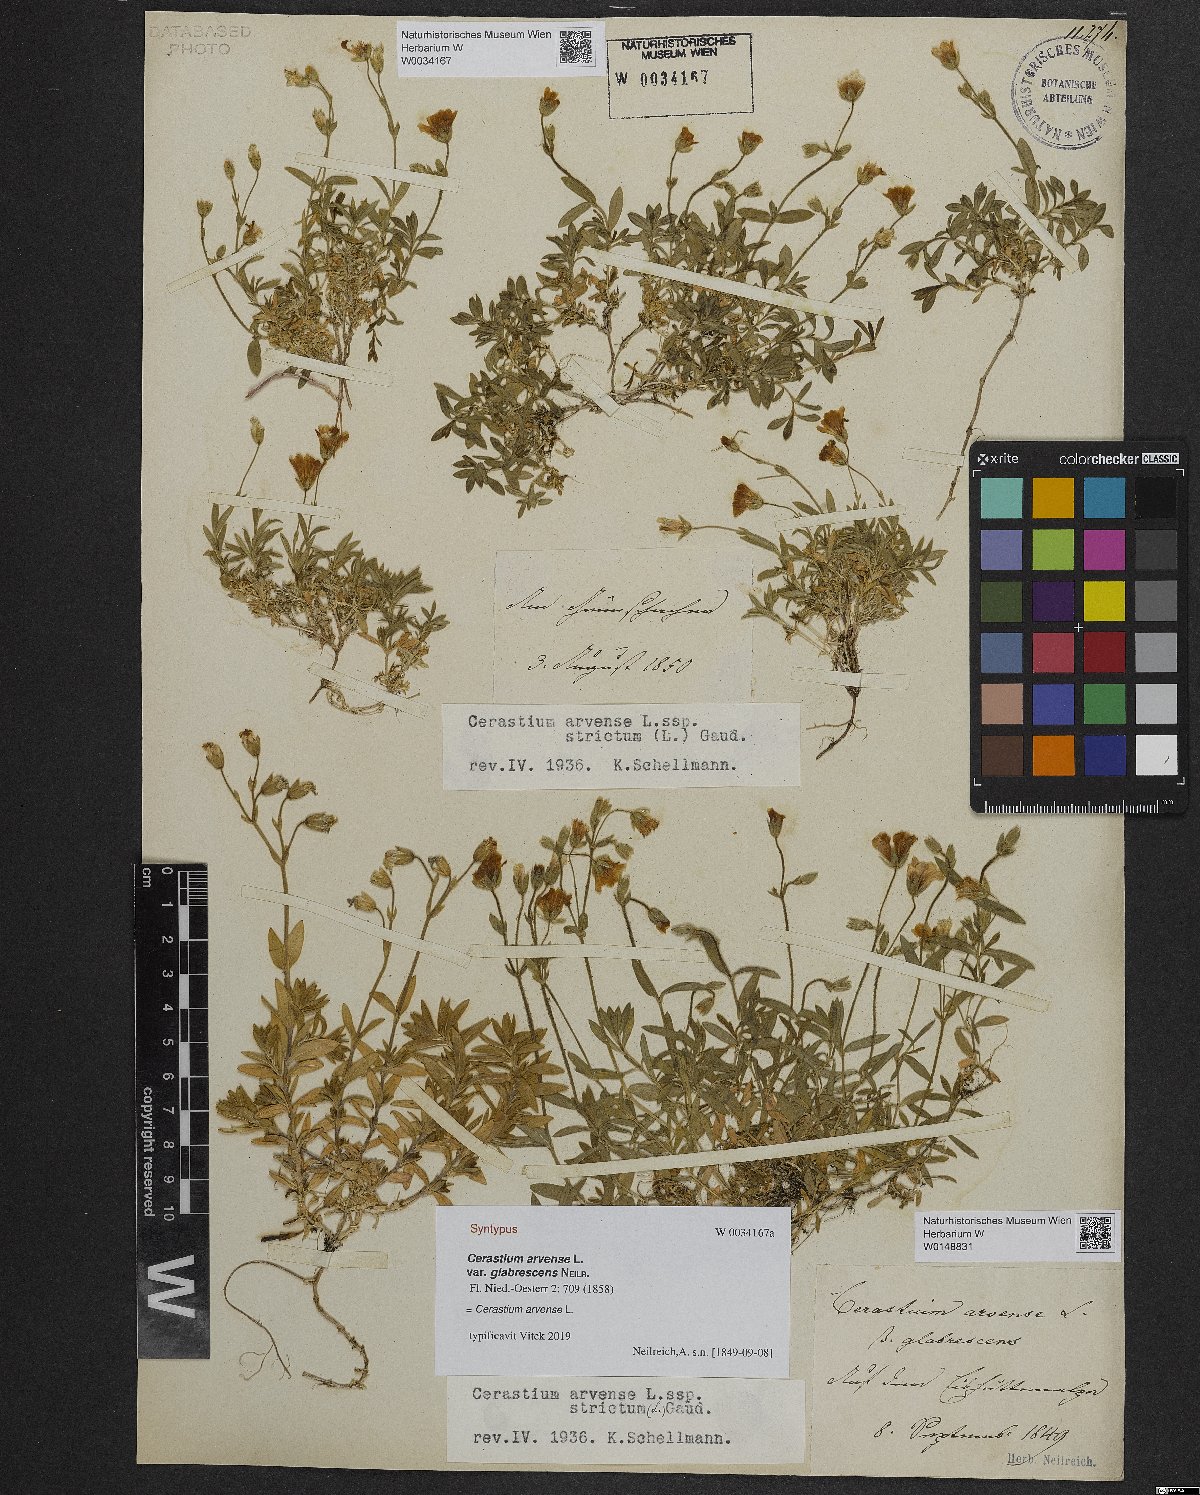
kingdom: Plantae
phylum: Tracheophyta
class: Magnoliopsida
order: Caryophyllales
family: Caryophyllaceae
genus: Cerastium
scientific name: Cerastium arvense
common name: Field mouse-ear
